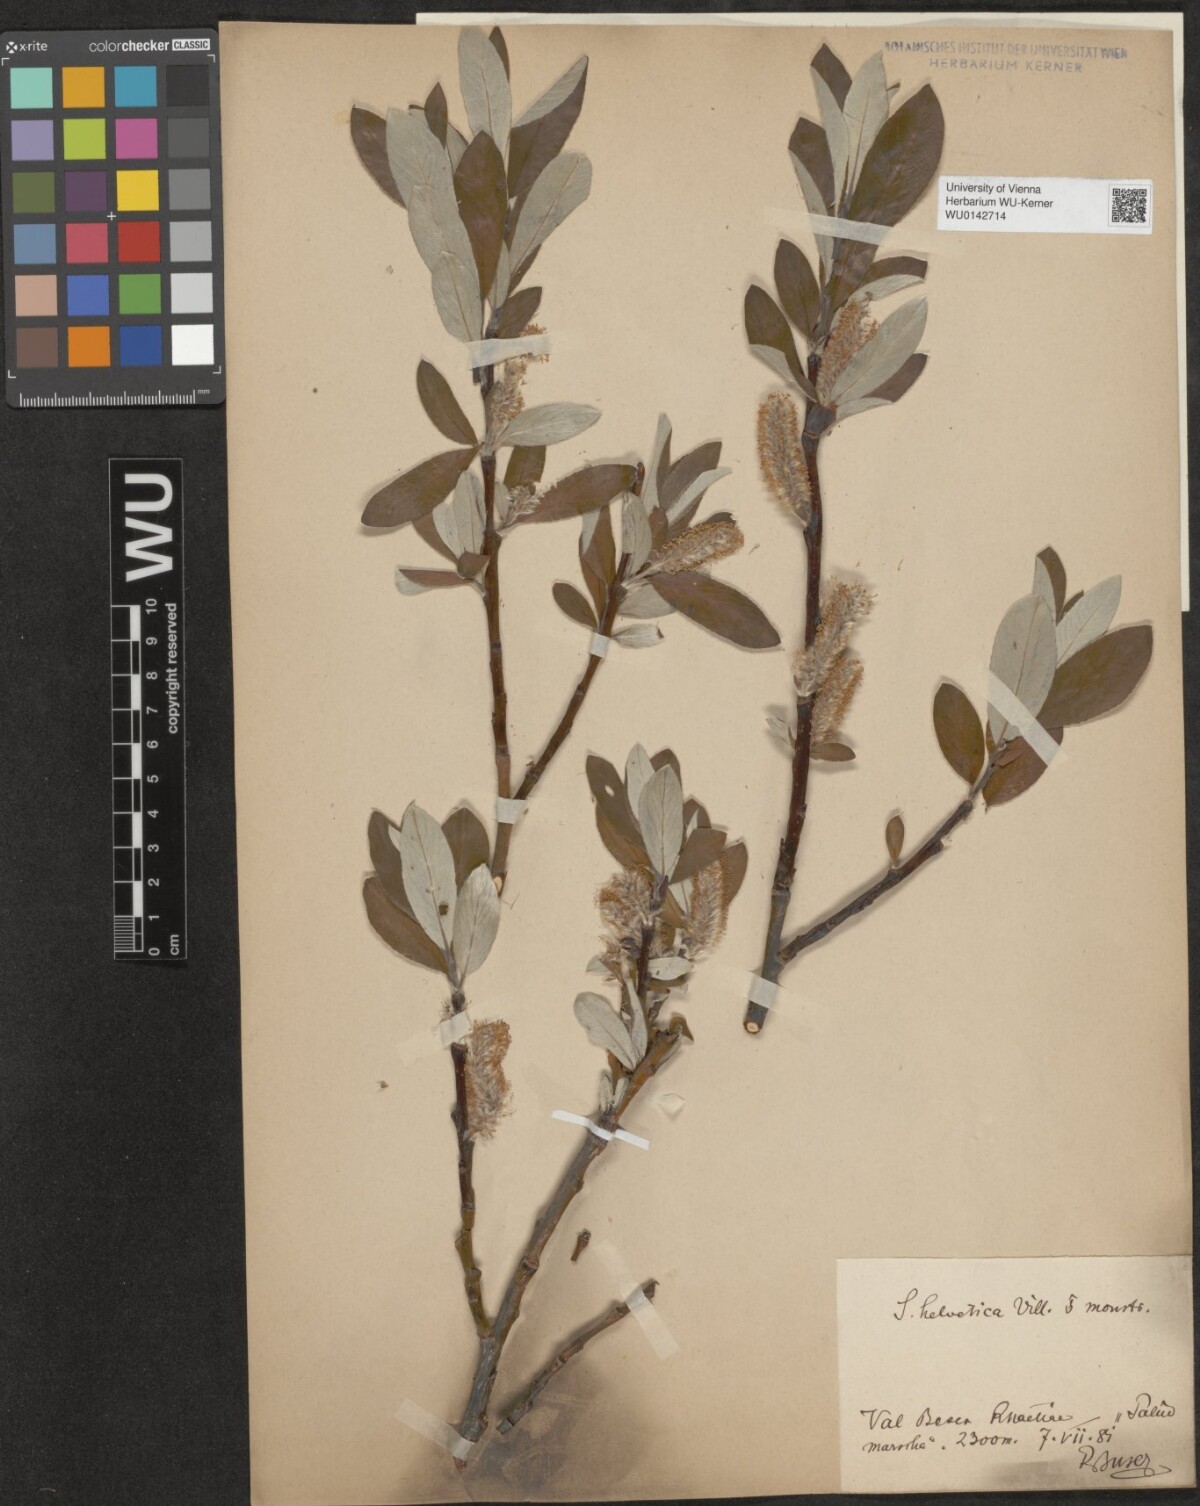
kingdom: Plantae
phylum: Tracheophyta
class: Magnoliopsida
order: Malpighiales
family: Salicaceae
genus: Salix
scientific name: Salix helvetica
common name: Swiss willow
